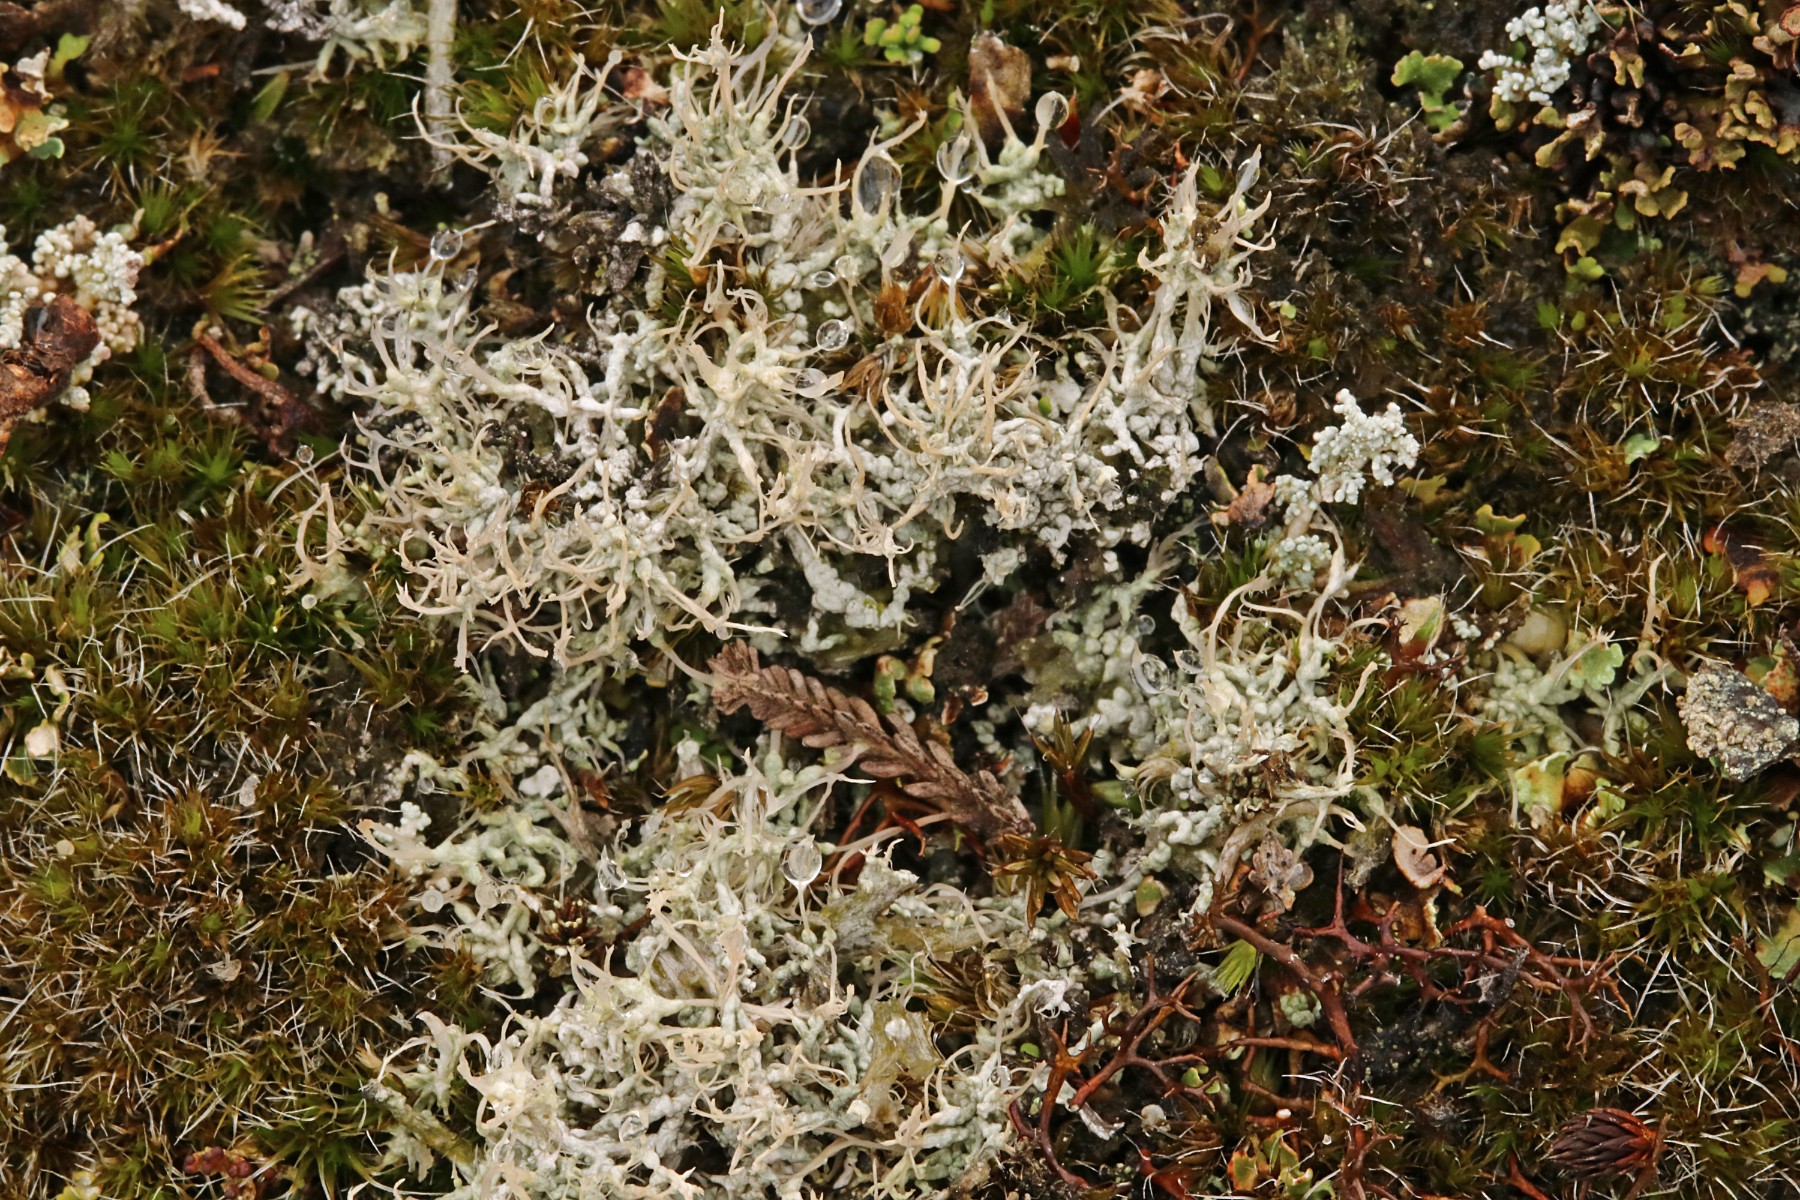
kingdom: Fungi
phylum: Ascomycota
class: Lecanoromycetes
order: Pertusariales
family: Ochrolechiaceae
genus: Ochrolechia
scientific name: Ochrolechia frigida
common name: fjeld-blegskivelav
